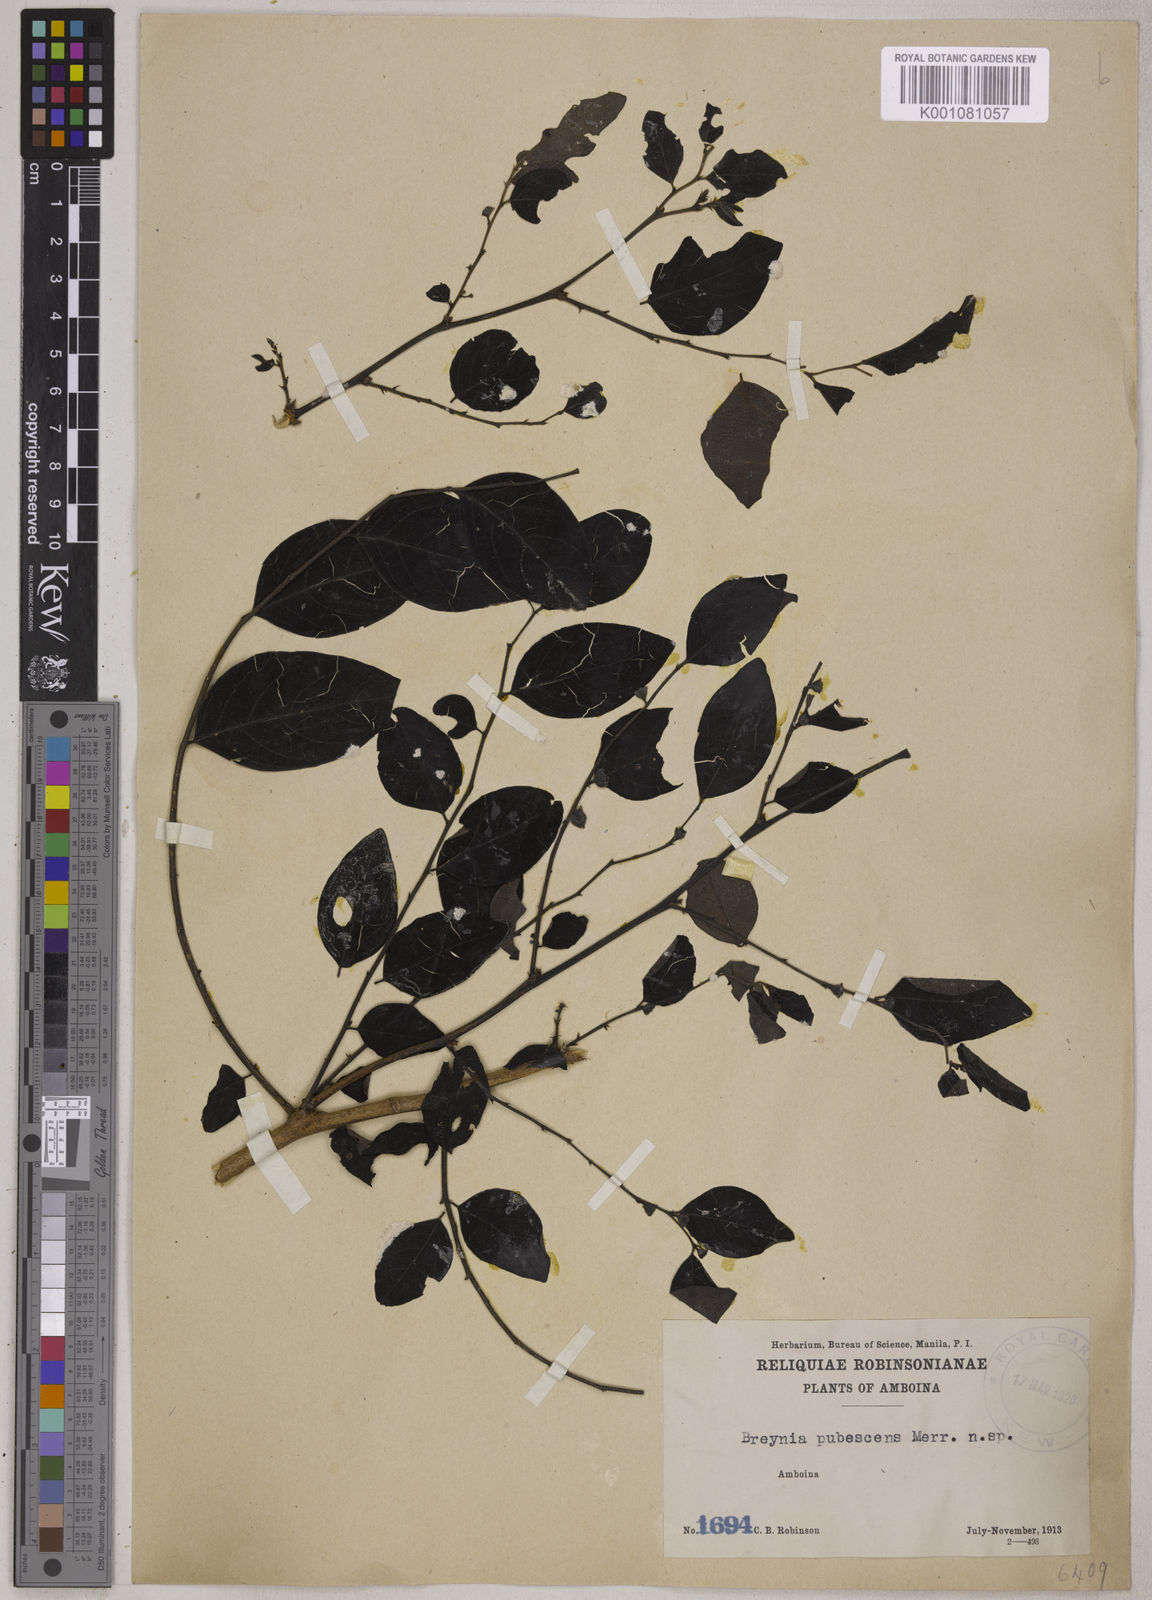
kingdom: Plantae
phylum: Tracheophyta
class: Magnoliopsida
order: Malpighiales
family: Phyllanthaceae
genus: Breynia
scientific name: Breynia pubescens
